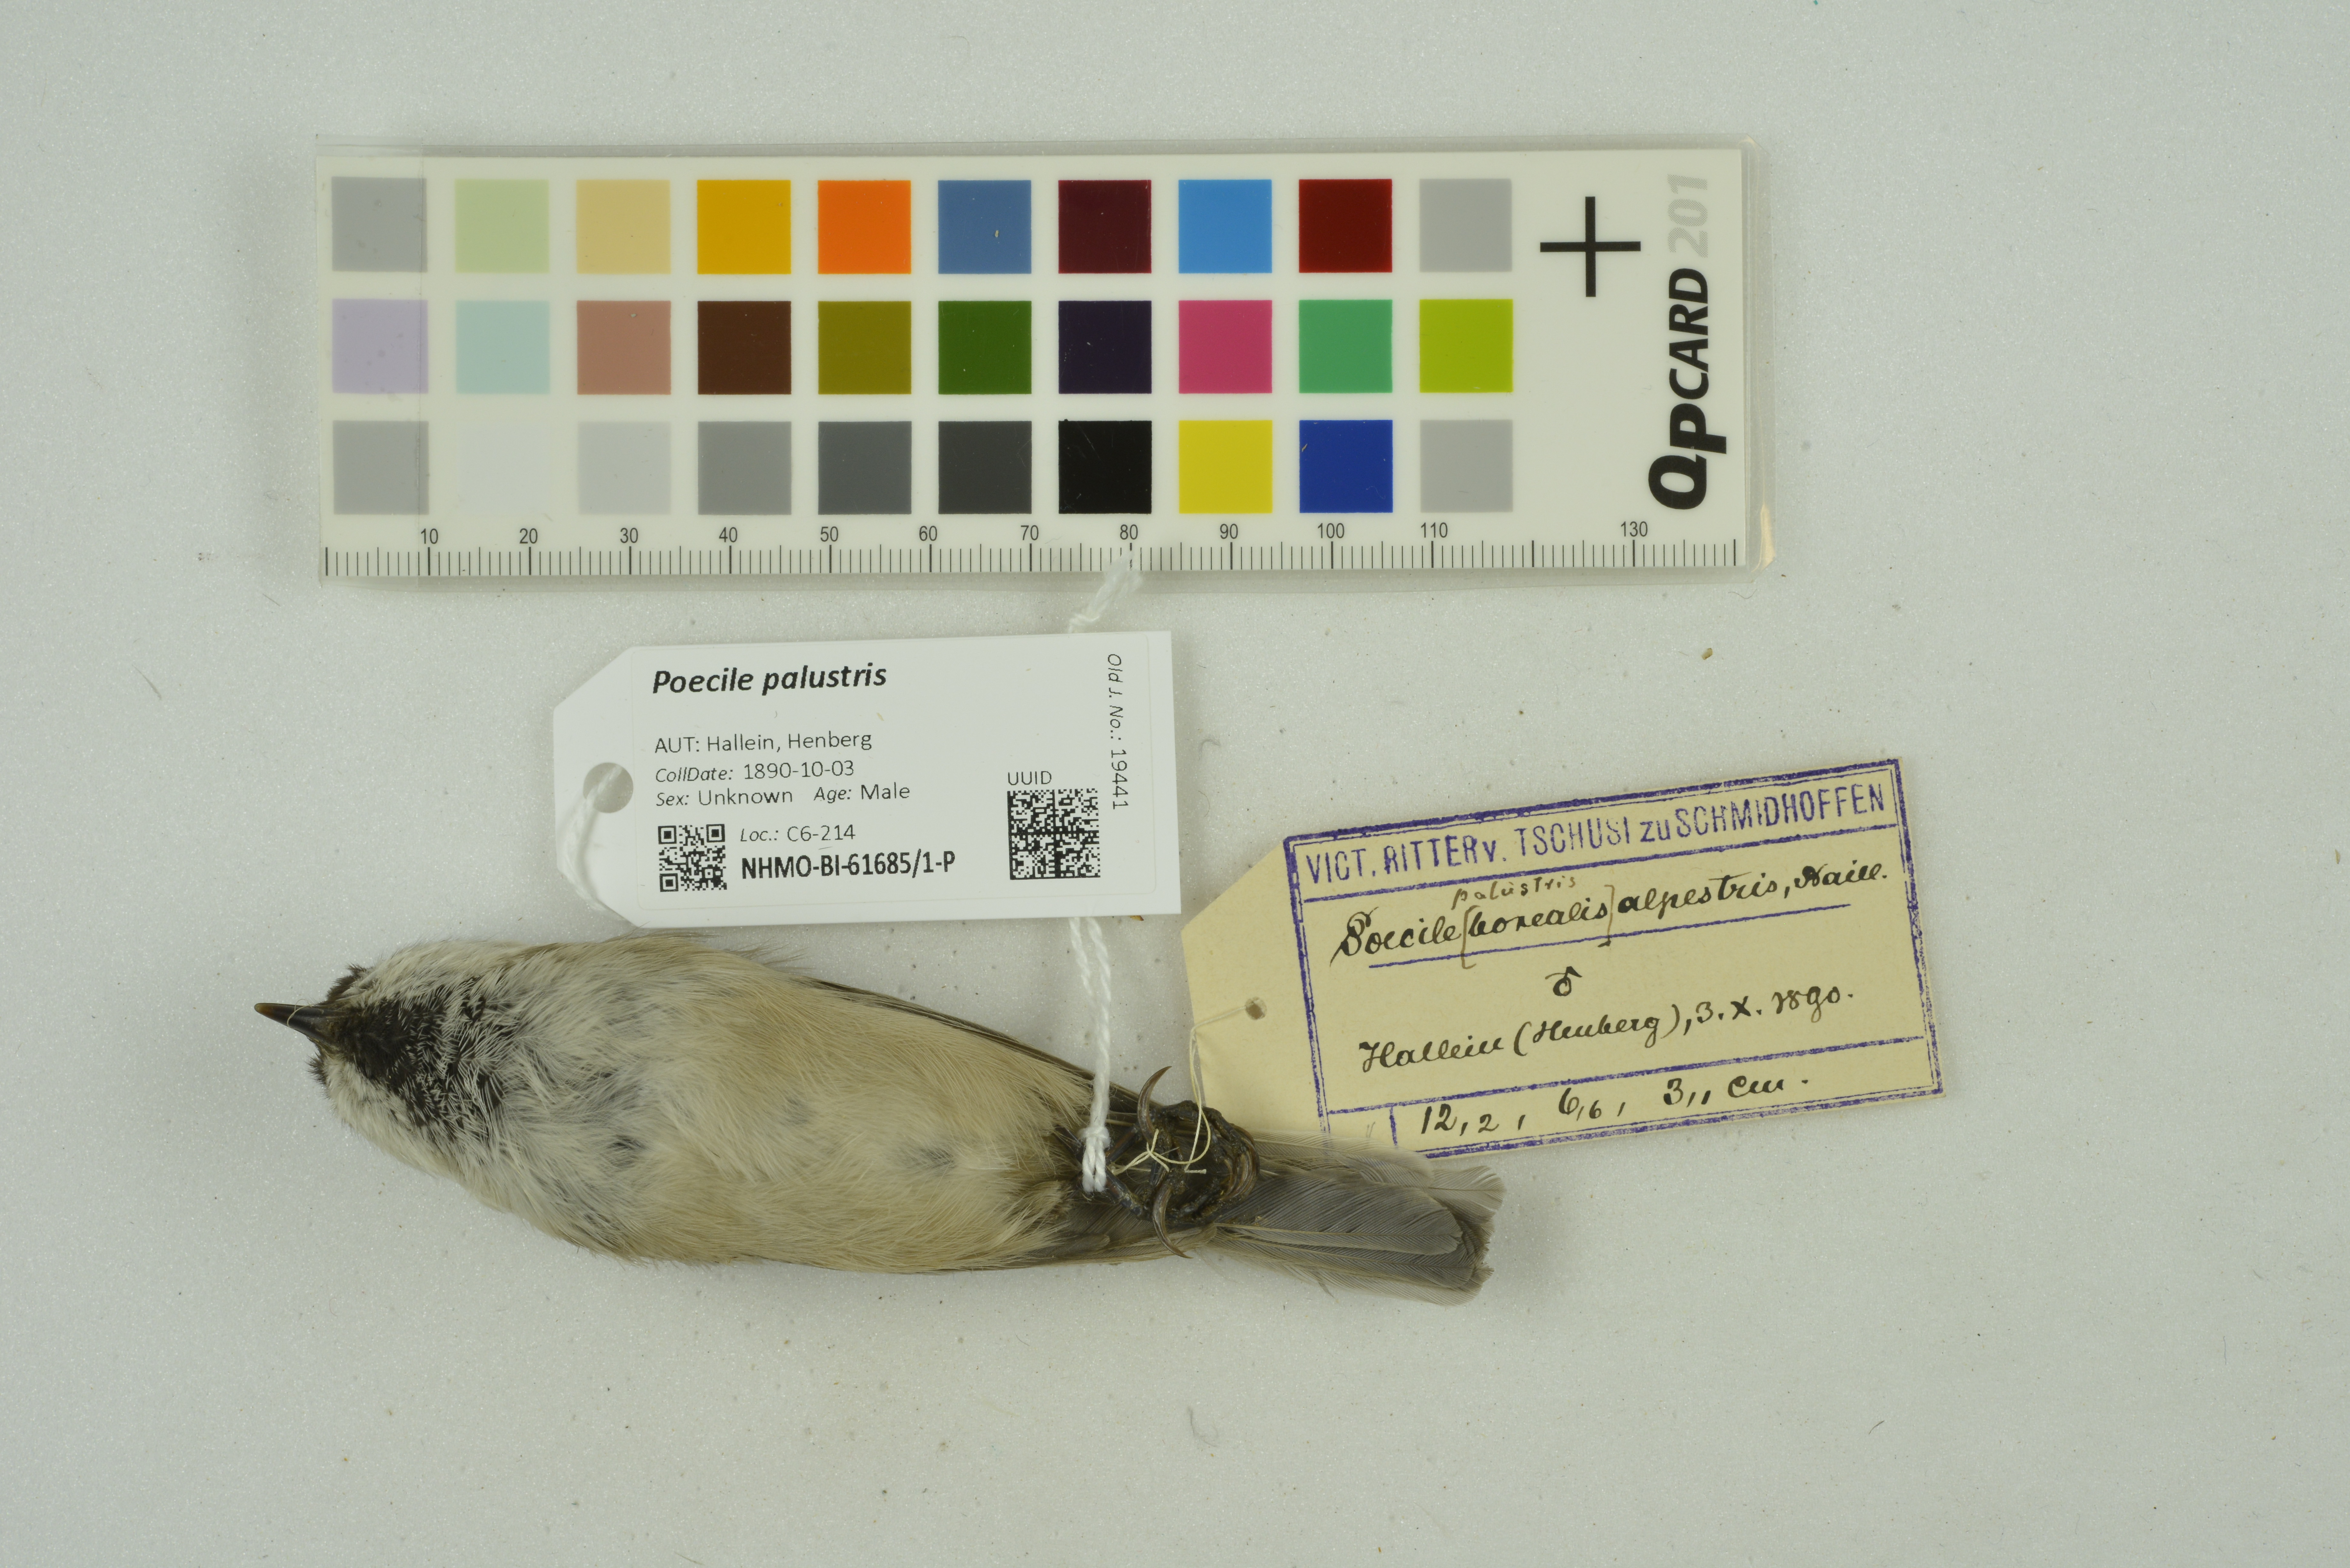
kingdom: Animalia
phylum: Chordata
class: Aves
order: Passeriformes
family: Paridae
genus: Poecile
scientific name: Poecile palustris
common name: Marsh tit
